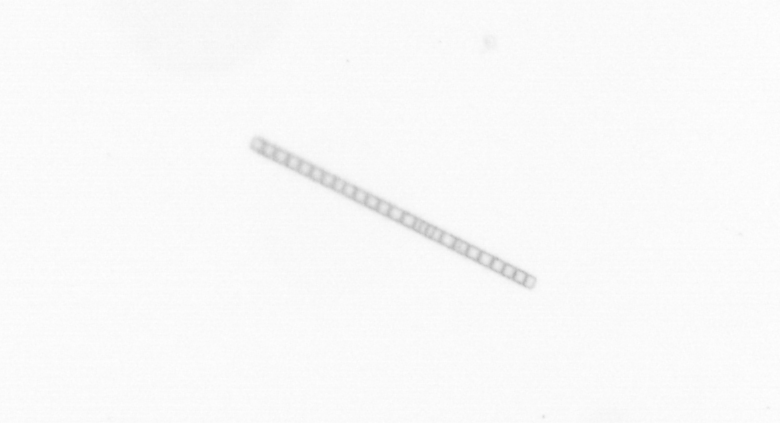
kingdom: Chromista
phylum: Ochrophyta
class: Bacillariophyceae
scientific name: Bacillariophyceae
